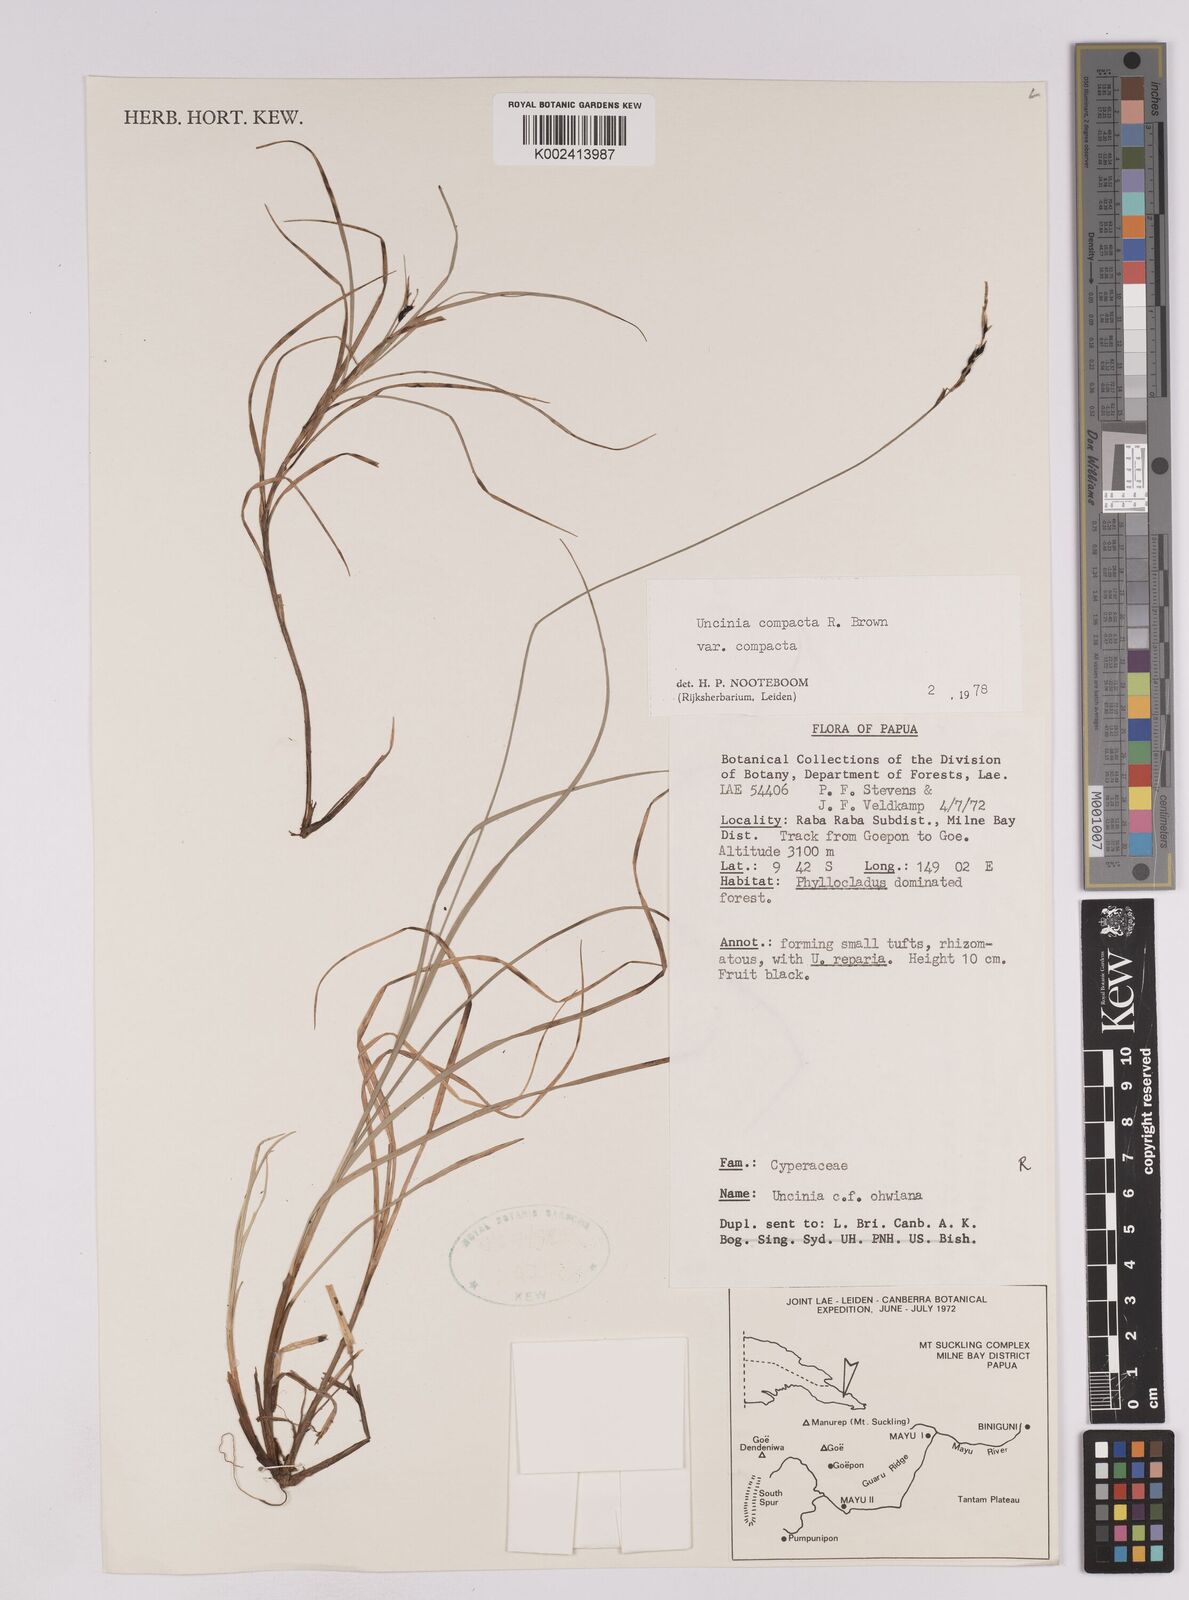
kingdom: Plantae
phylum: Tracheophyta
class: Liliopsida
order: Poales
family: Cyperaceae
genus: Carex
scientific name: Carex austrocompacta
